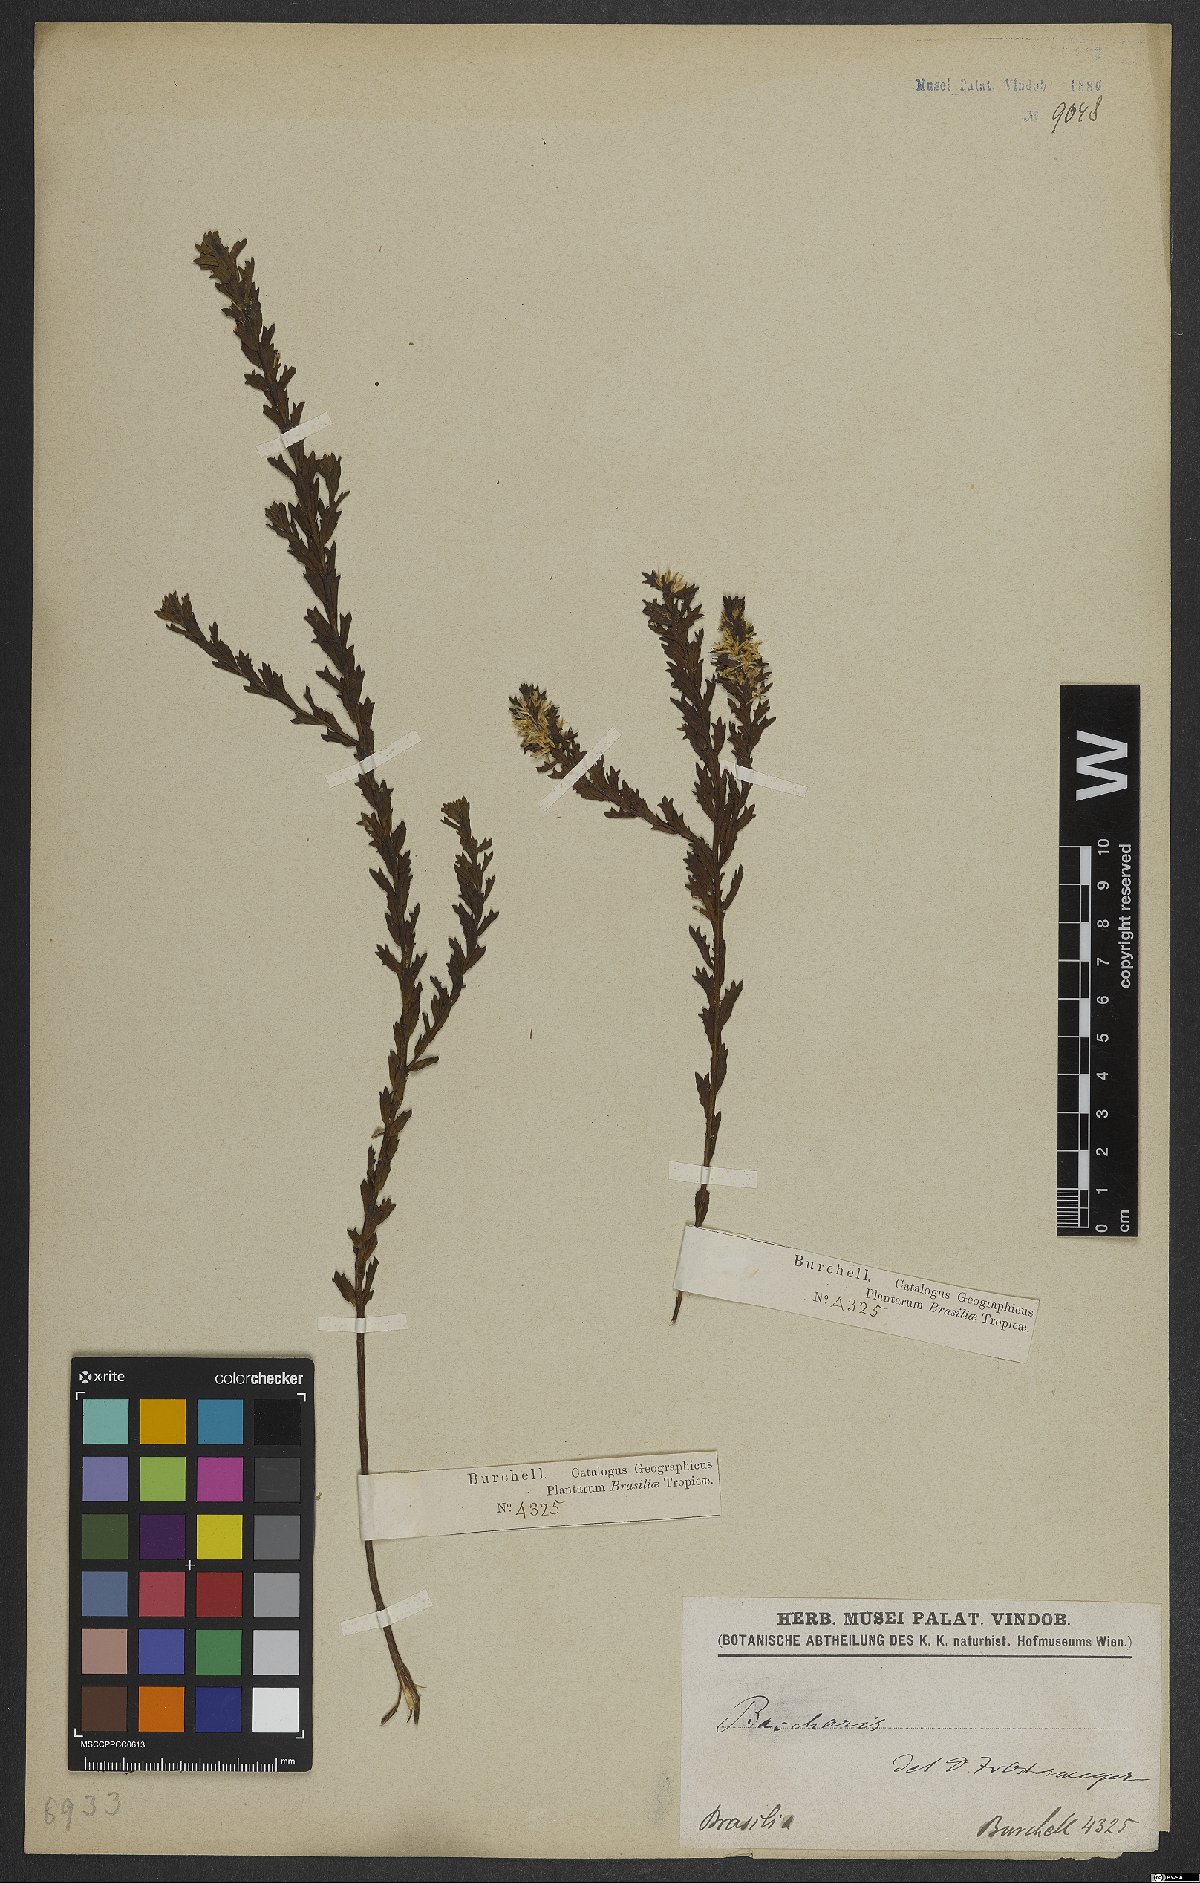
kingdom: Plantae
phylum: Tracheophyta
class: Magnoliopsida
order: Asterales
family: Asteraceae
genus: Baccharis
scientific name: Baccharis
